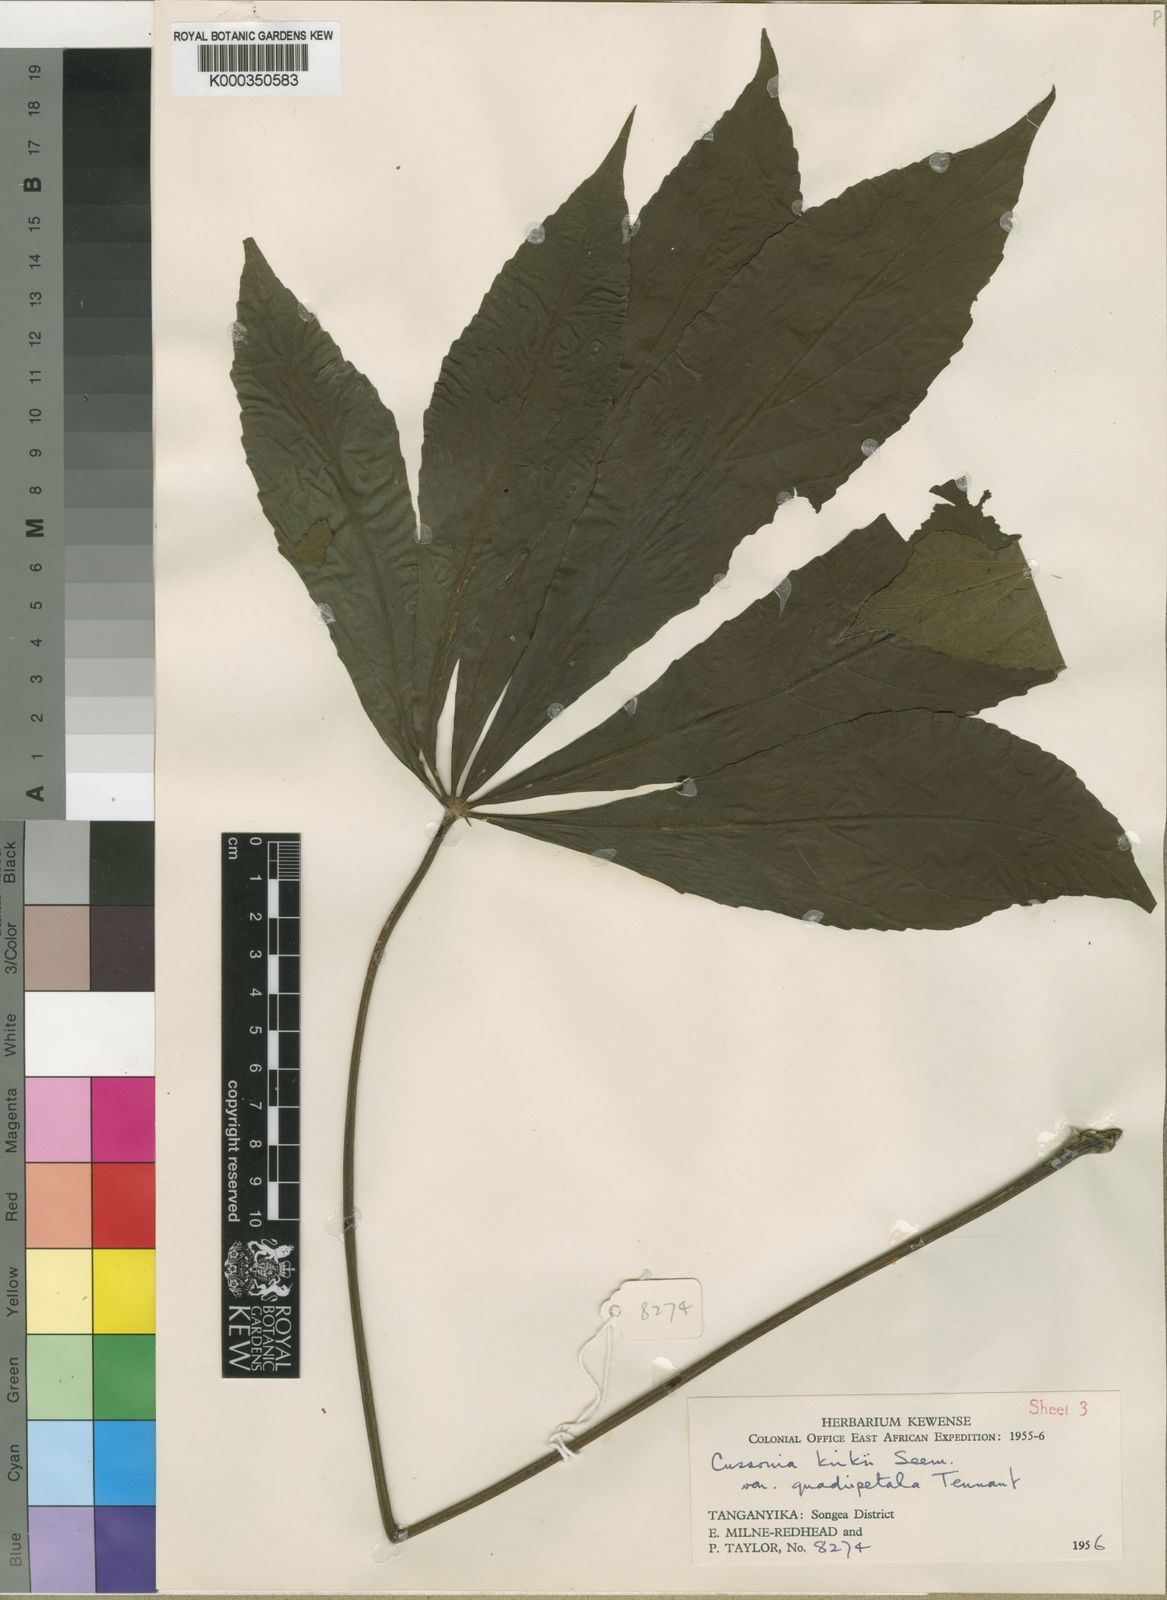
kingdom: Plantae
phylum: Tracheophyta
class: Magnoliopsida
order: Apiales
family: Araliaceae
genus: Cussonia
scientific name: Cussonia arborea
